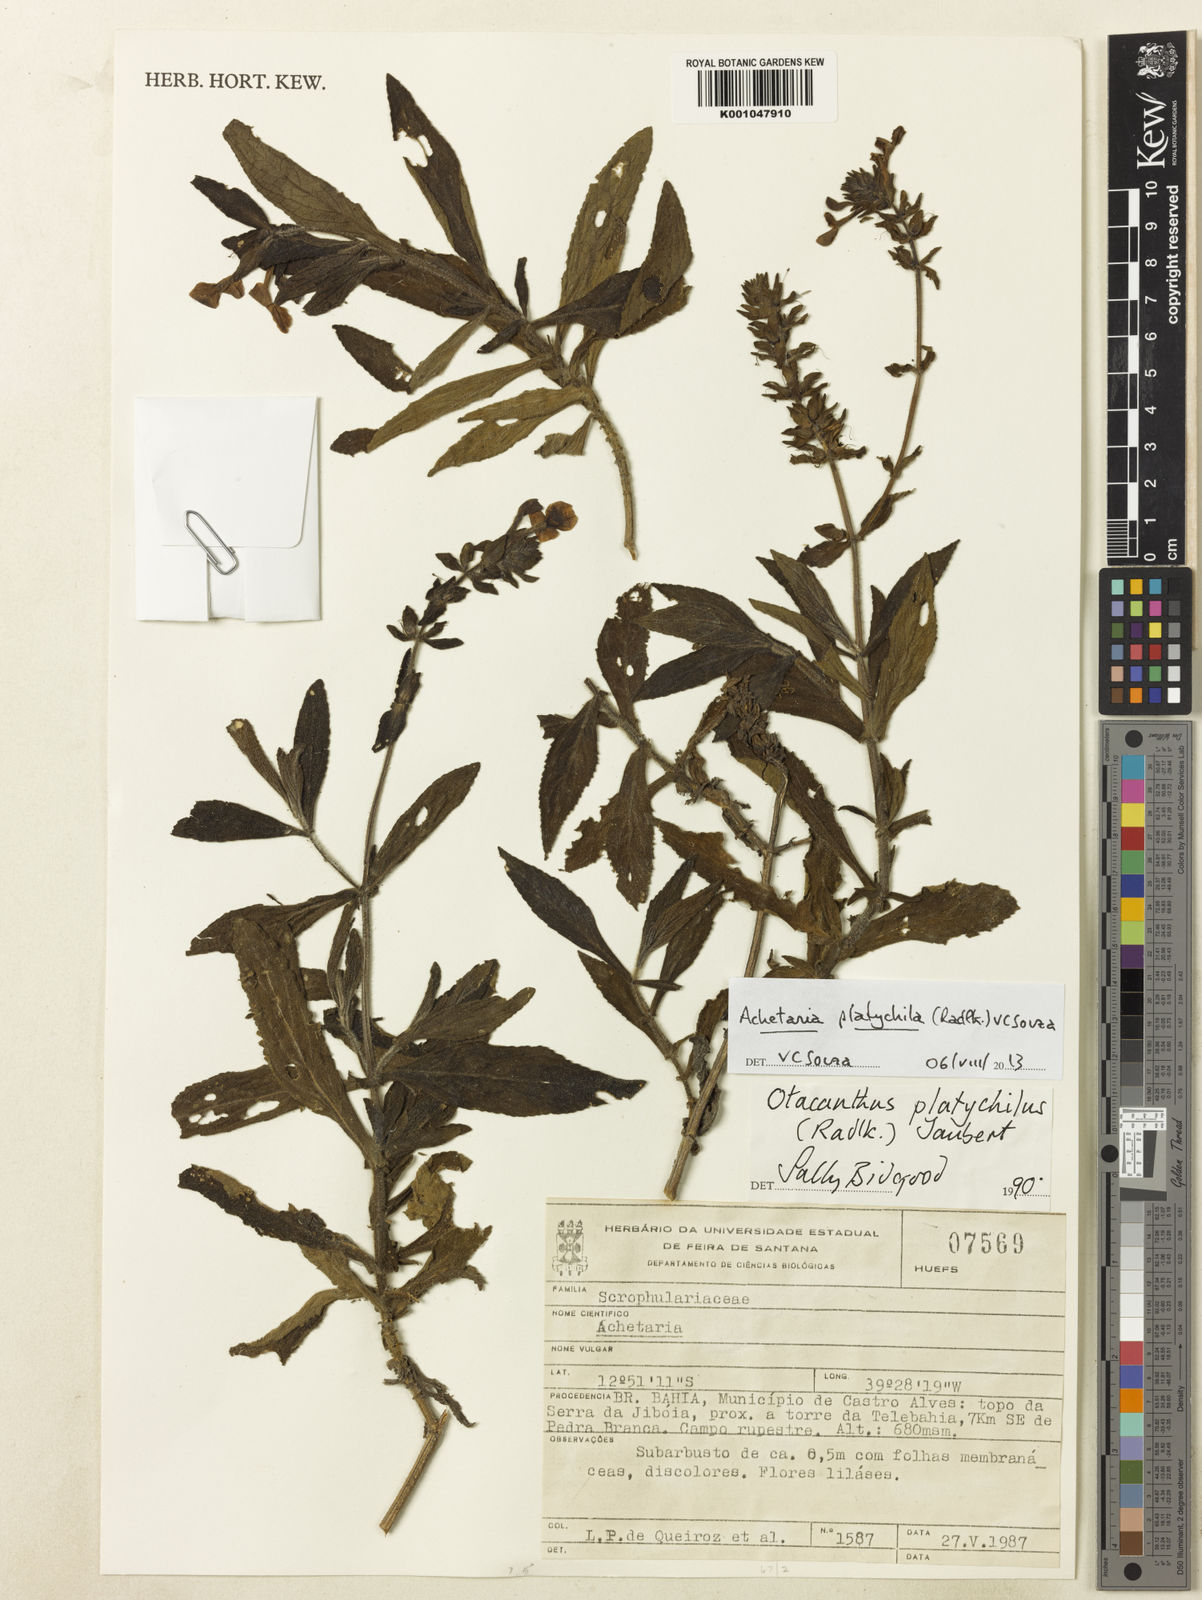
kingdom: Plantae
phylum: Tracheophyta
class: Magnoliopsida
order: Lamiales
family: Plantaginaceae
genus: Matourea
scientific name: Matourea platychila
